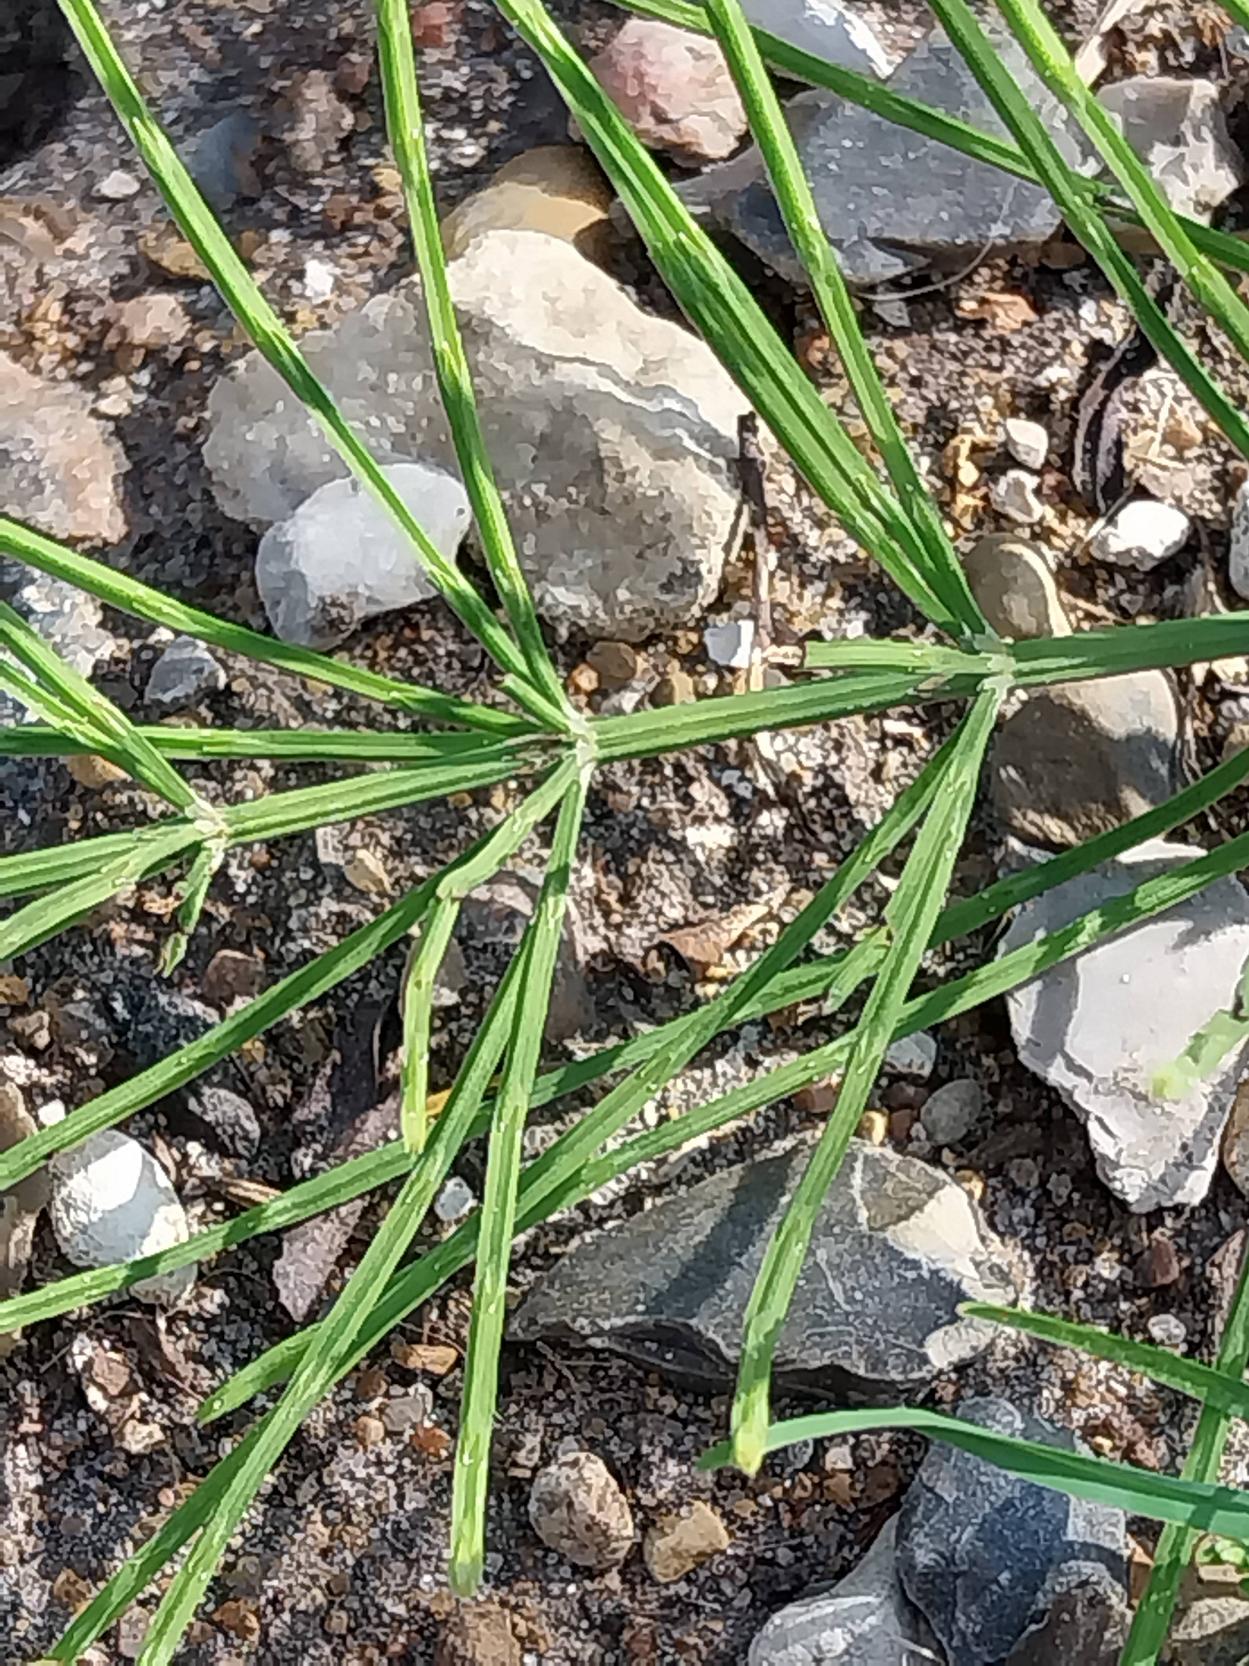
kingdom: Plantae
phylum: Tracheophyta
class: Polypodiopsida
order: Equisetales
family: Equisetaceae
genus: Equisetum
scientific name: Equisetum arvense
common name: Ager-padderok
